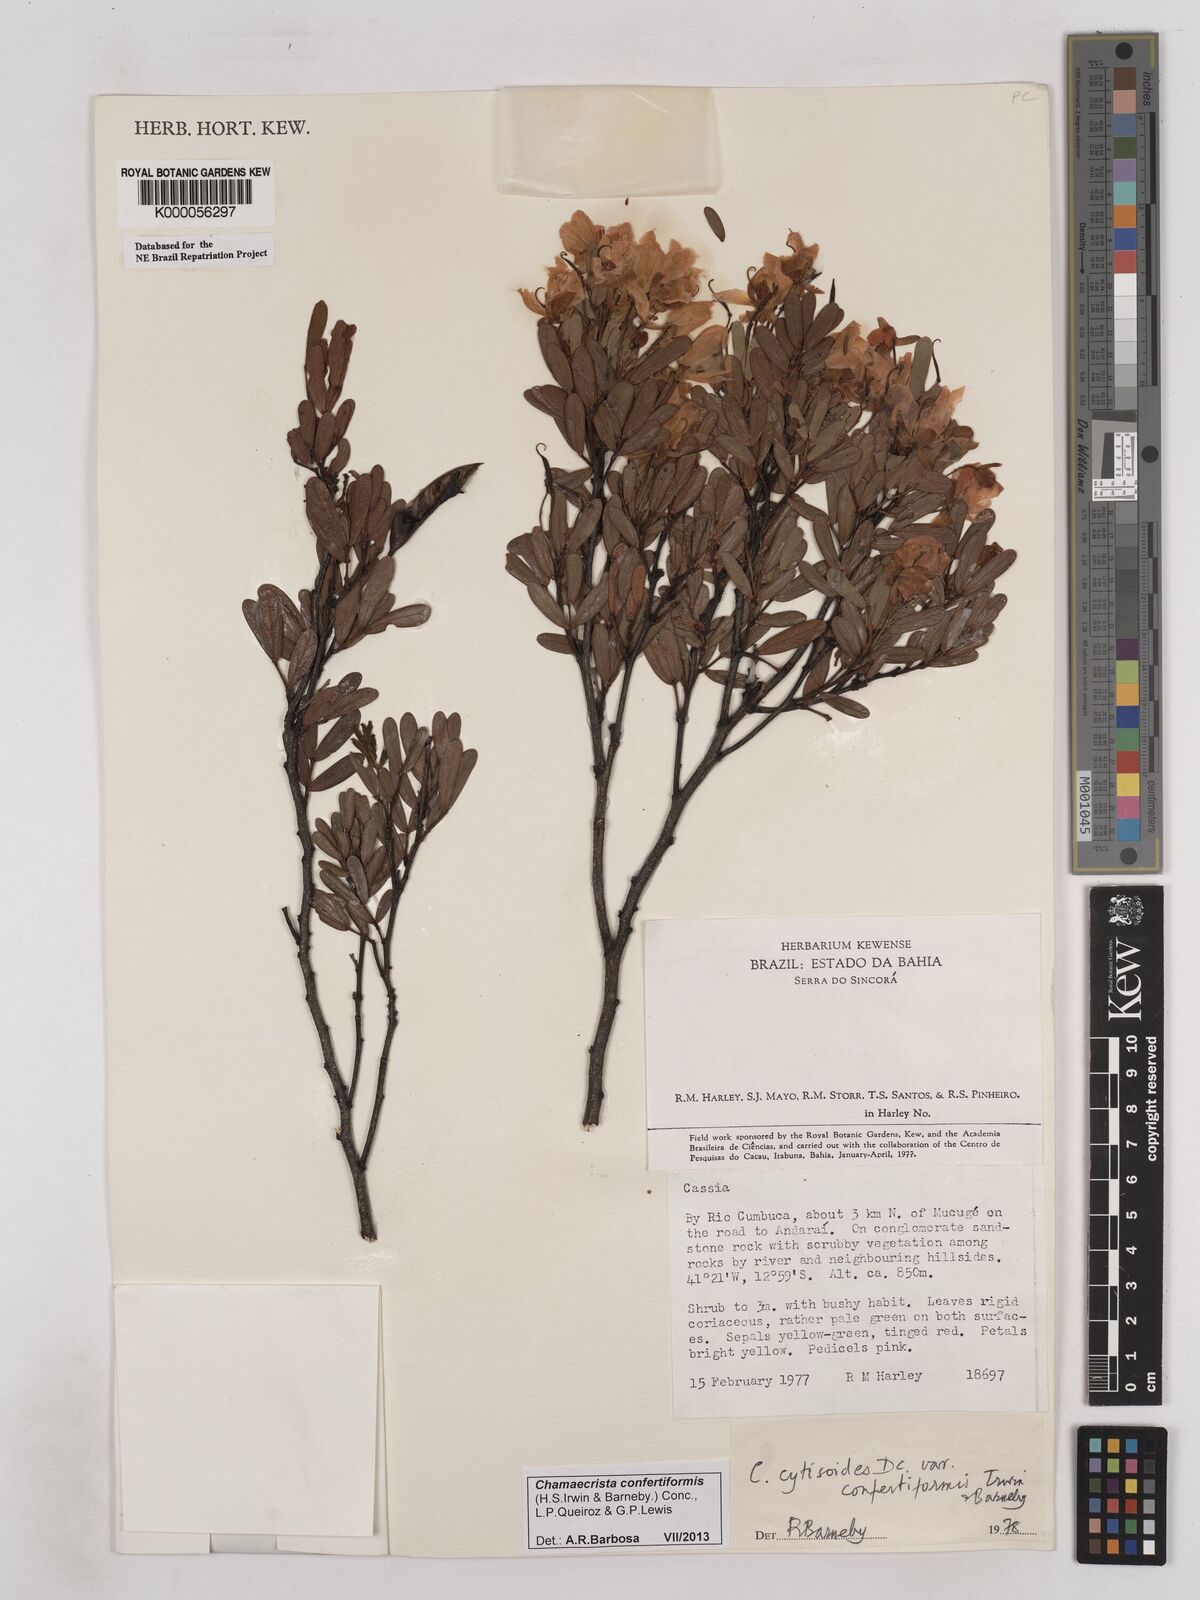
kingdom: Plantae
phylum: Tracheophyta
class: Magnoliopsida
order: Fabales
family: Fabaceae
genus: Chamaecrista
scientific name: Chamaecrista confertiformis
